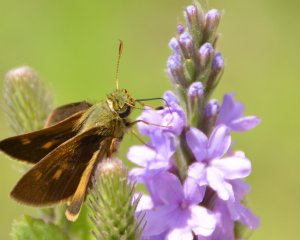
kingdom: Animalia
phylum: Arthropoda
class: Insecta
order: Lepidoptera
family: Hesperiidae
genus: Polites
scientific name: Polites egeremet
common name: Northern Broken-Dash
